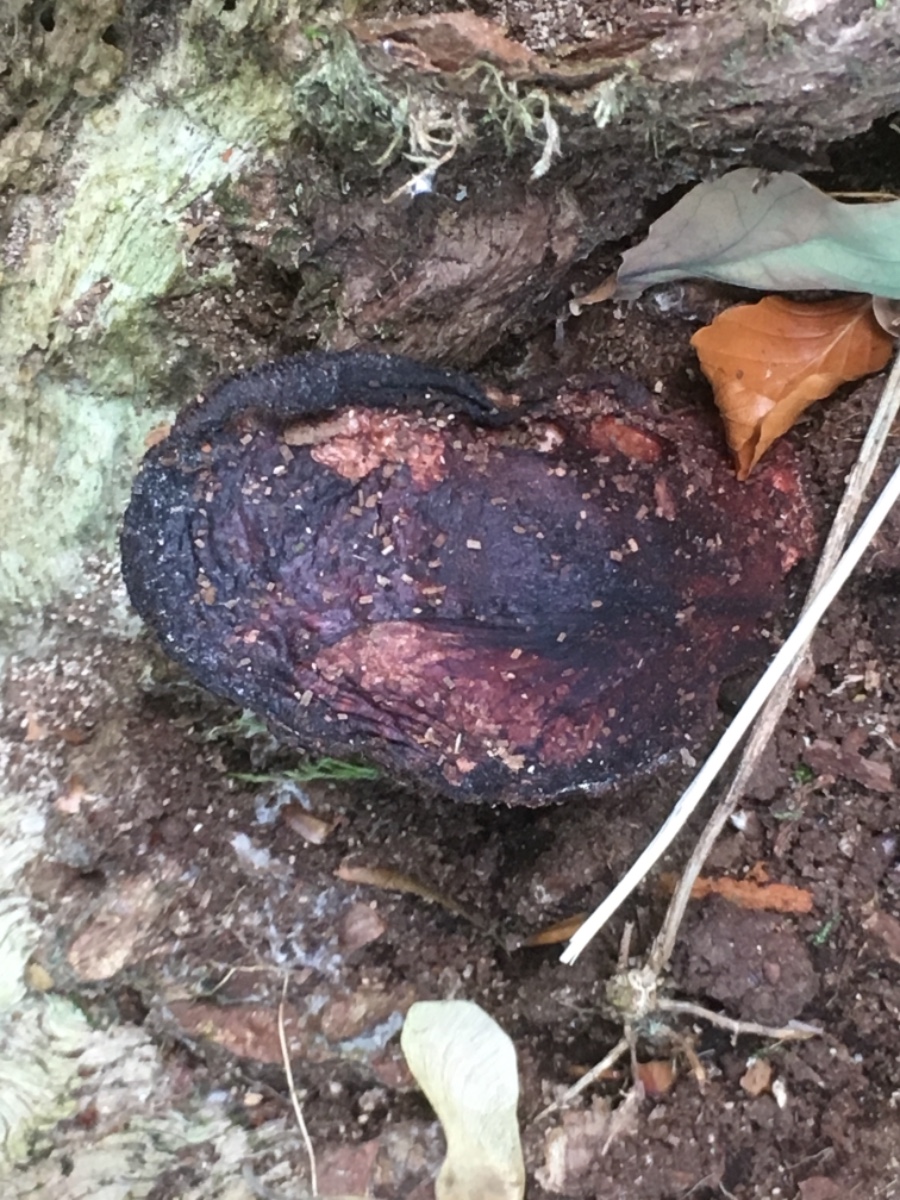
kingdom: Fungi
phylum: Basidiomycota
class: Agaricomycetes
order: Agaricales
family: Fistulinaceae
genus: Fistulina
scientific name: Fistulina hepatica
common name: oksetunge
